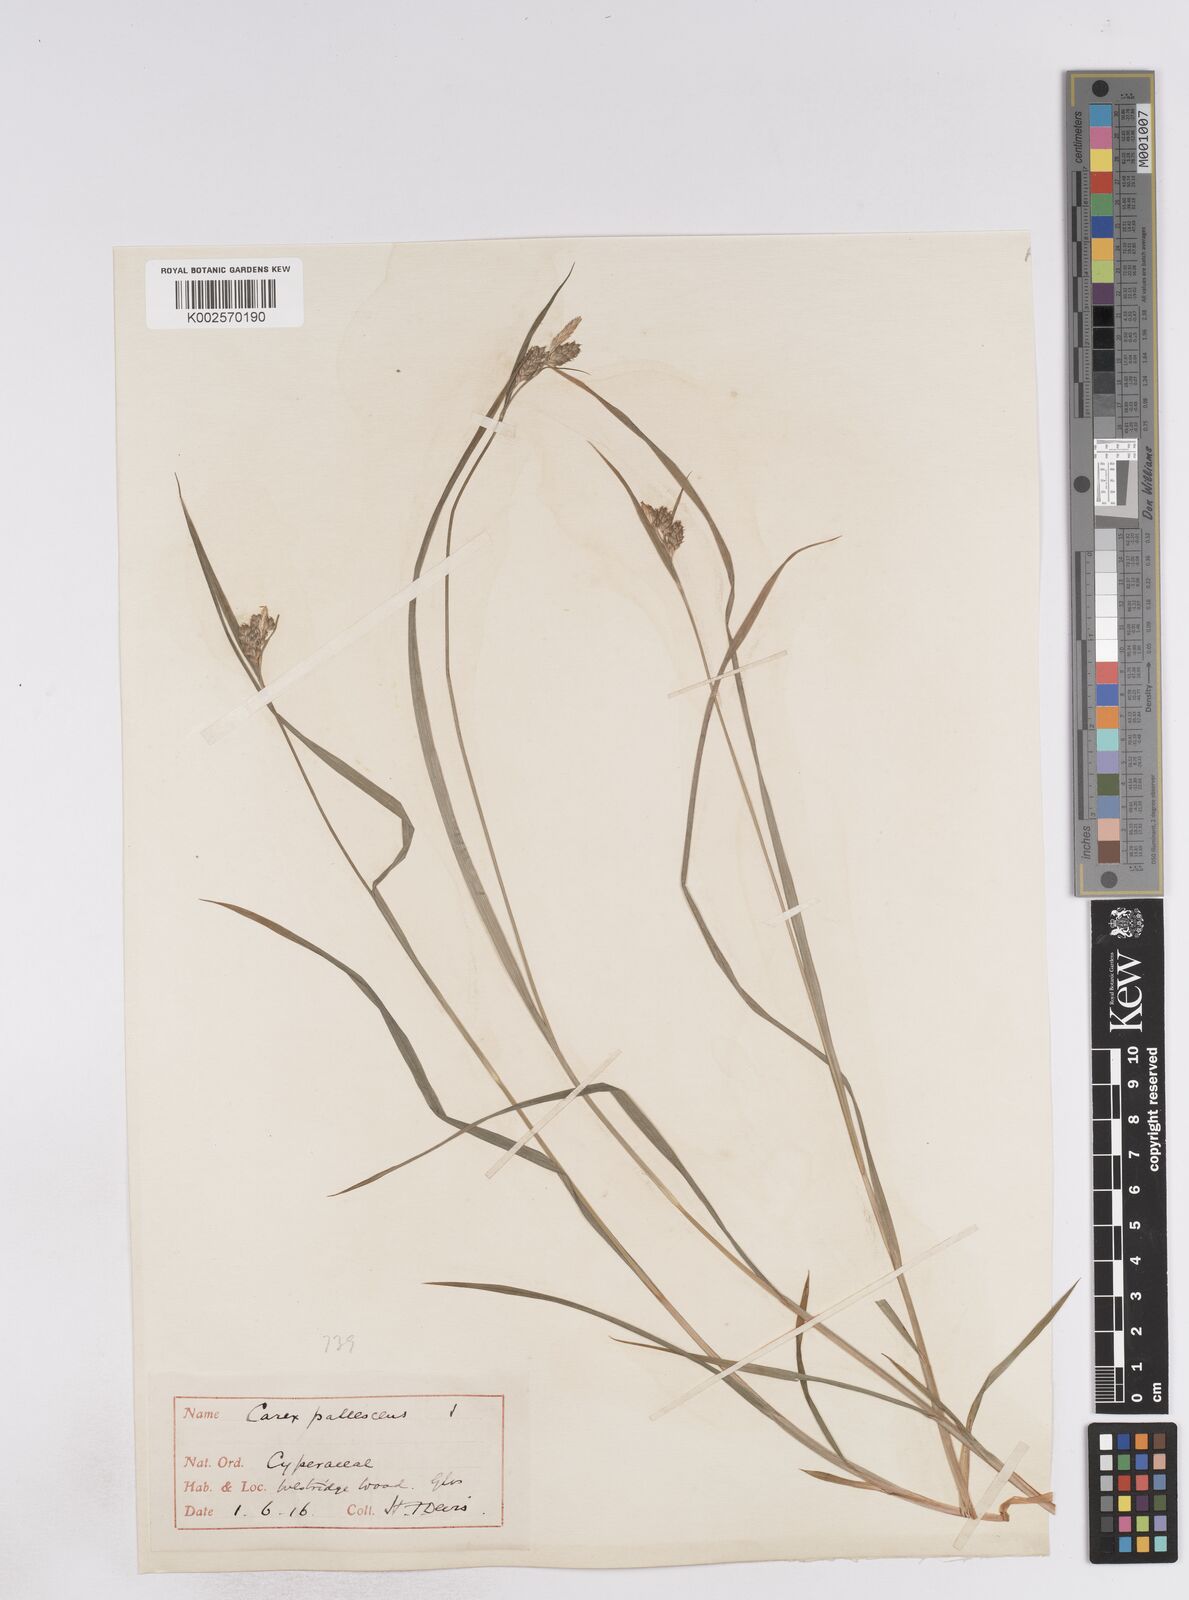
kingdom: Plantae
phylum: Tracheophyta
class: Liliopsida
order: Poales
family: Cyperaceae
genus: Carex
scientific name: Carex pallescens
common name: Pale sedge
